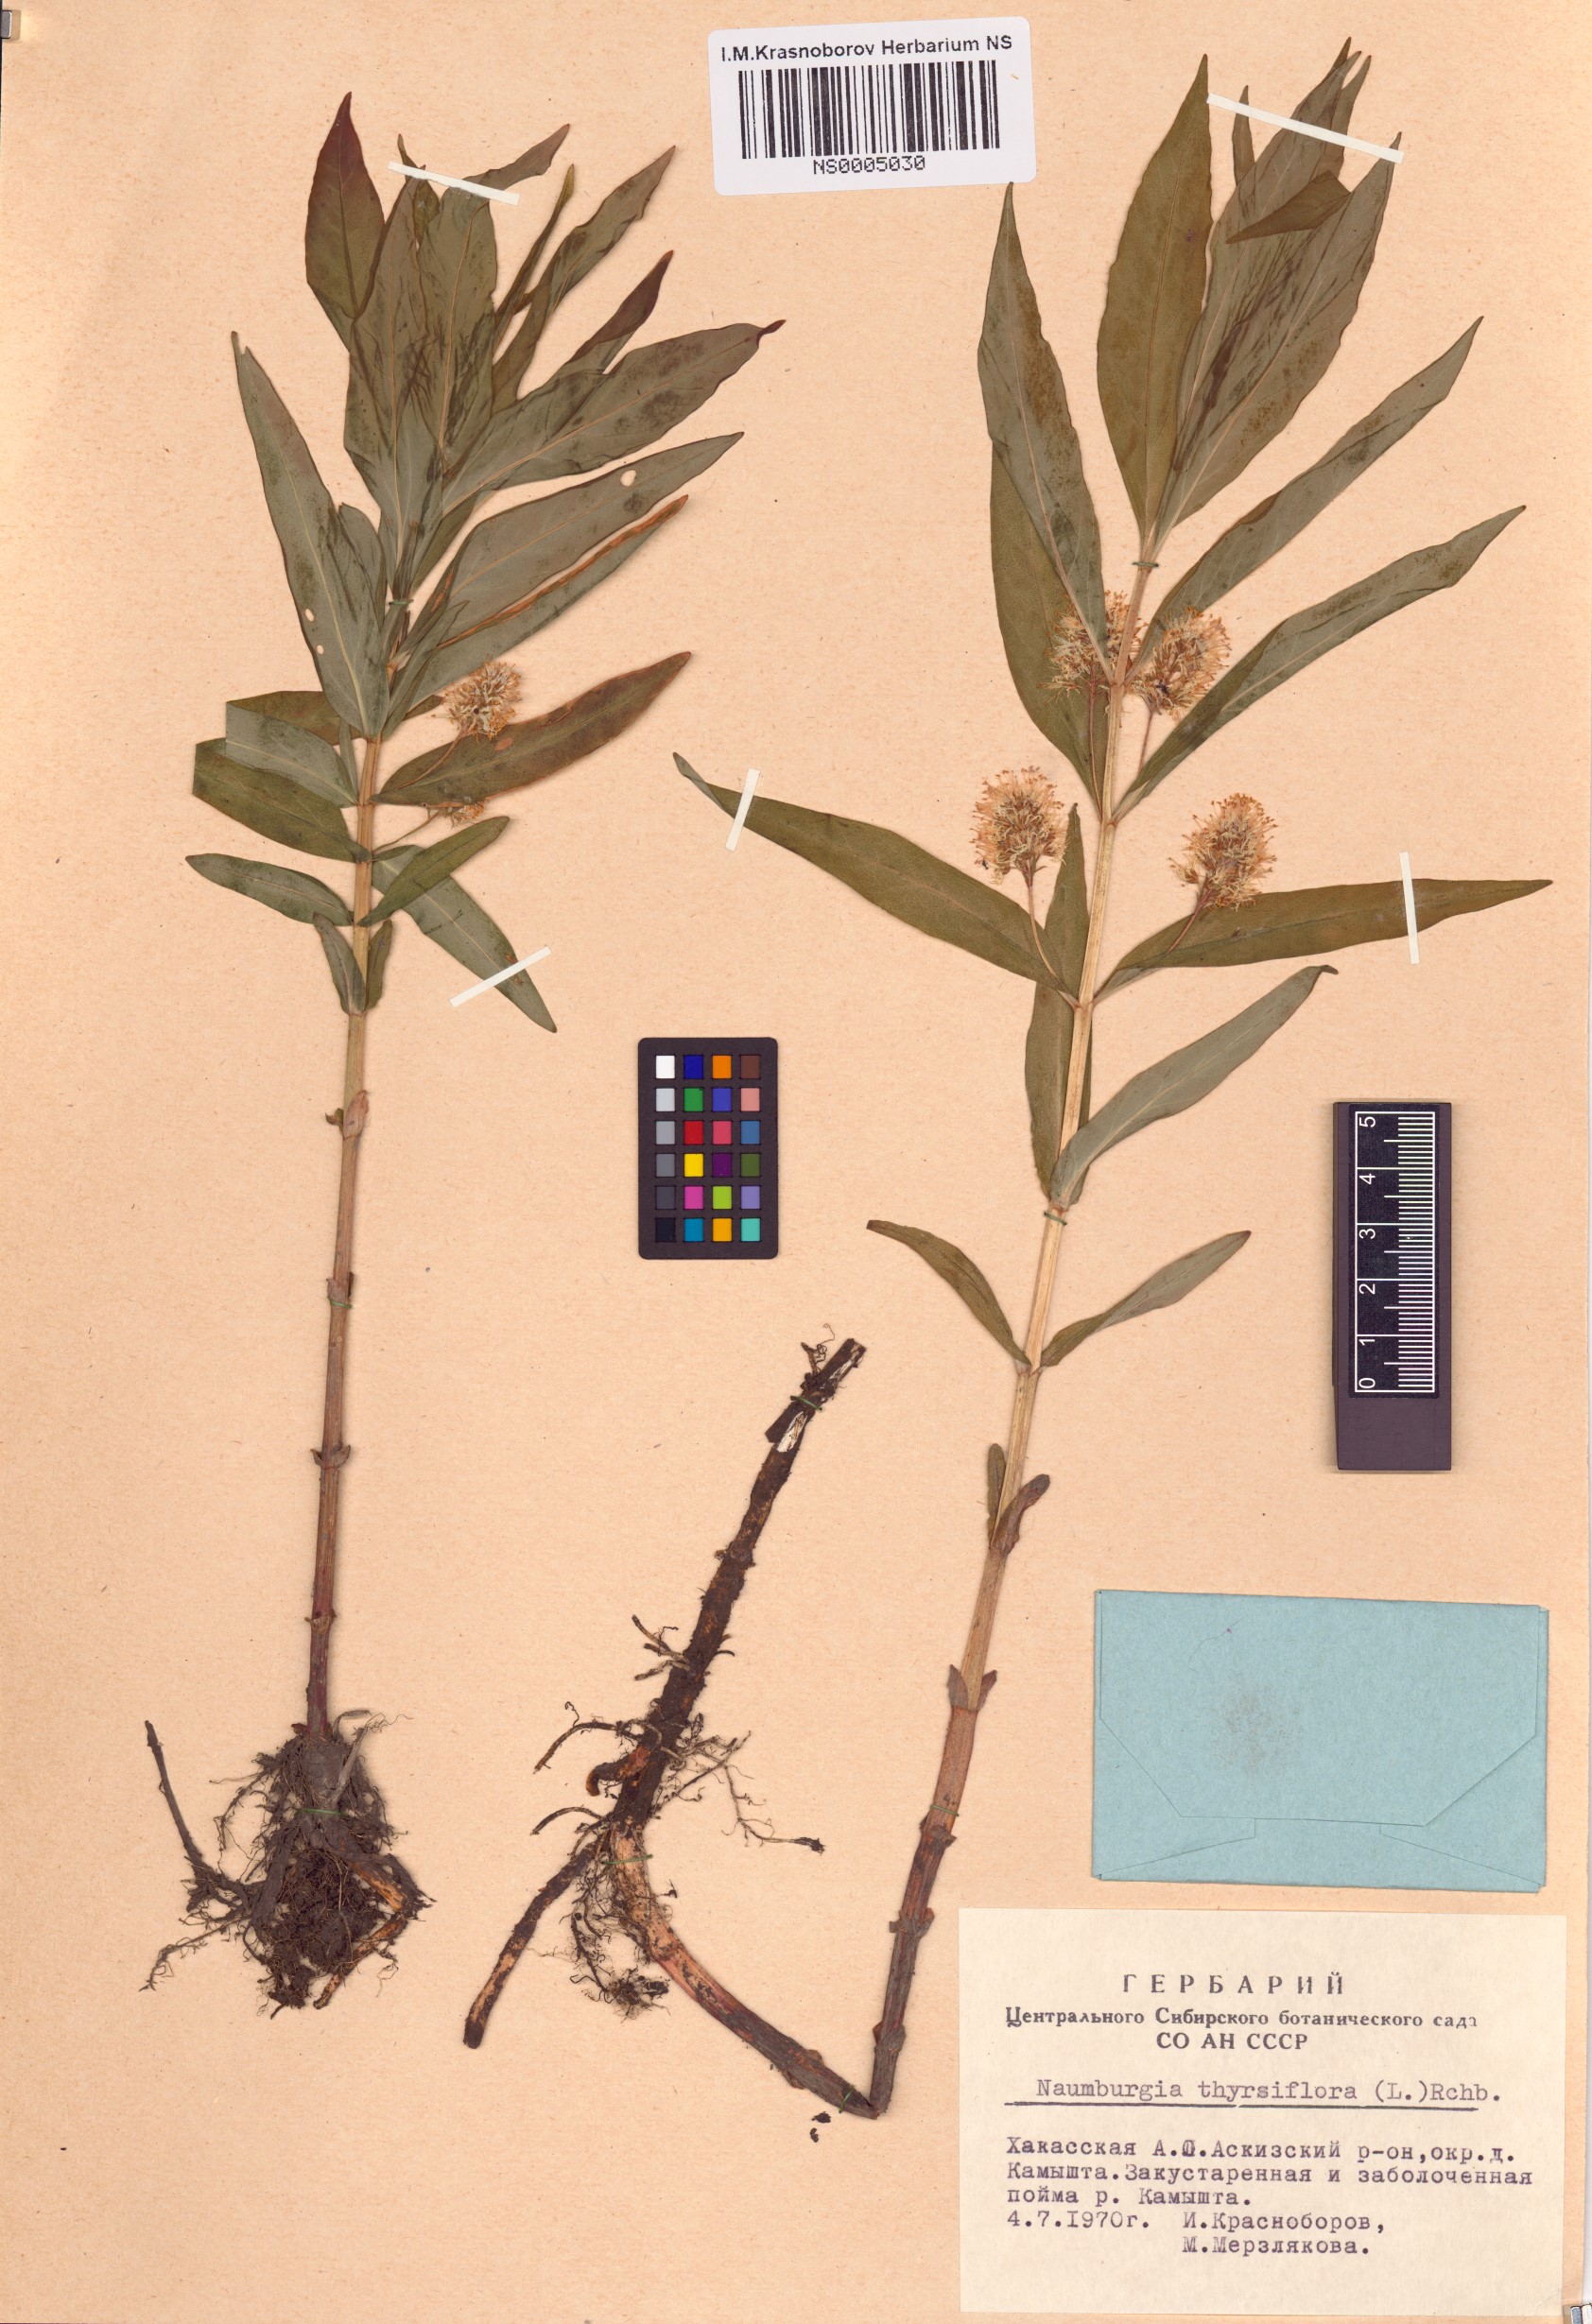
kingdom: Plantae
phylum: Tracheophyta
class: Magnoliopsida
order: Ericales
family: Primulaceae
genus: Lysimachia
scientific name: Lysimachia thyrsiflora
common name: Tufted loosestrife
